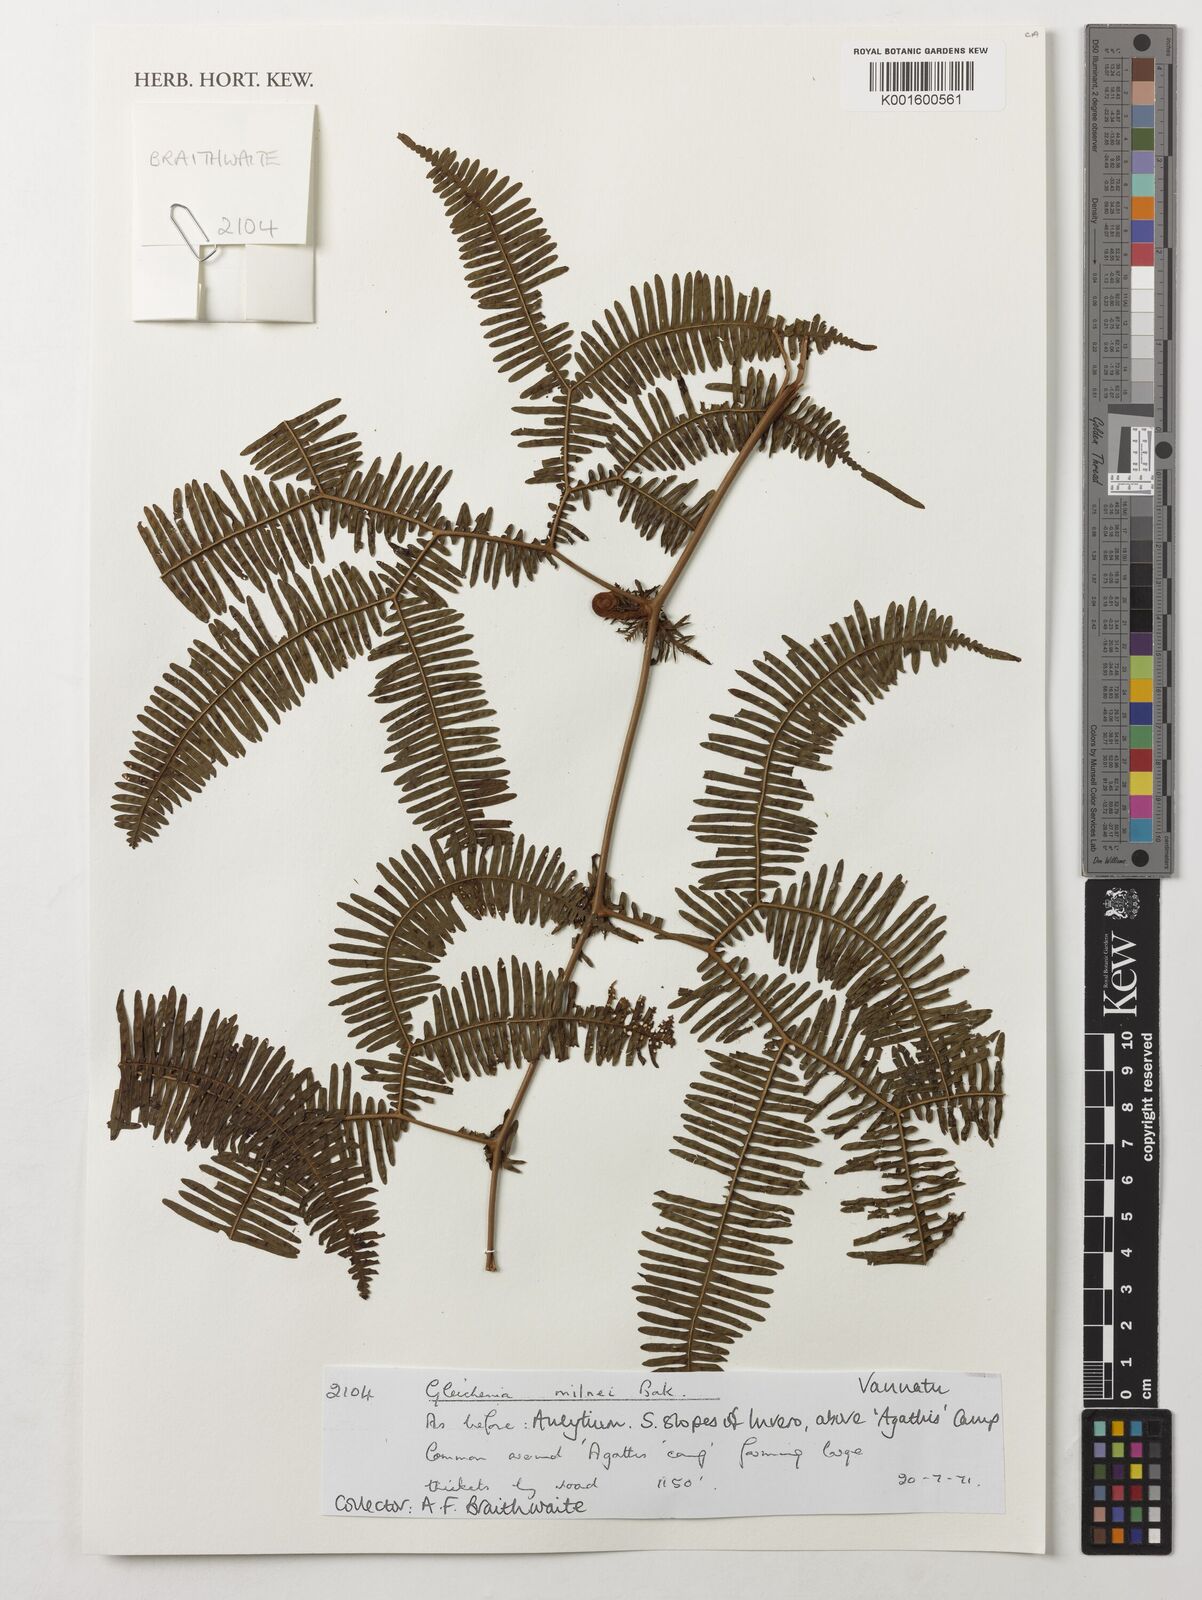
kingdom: Plantae
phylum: Tracheophyta
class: Polypodiopsida
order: Gleicheniales
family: Gleicheniaceae
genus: Sticherus
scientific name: Sticherus milnei
